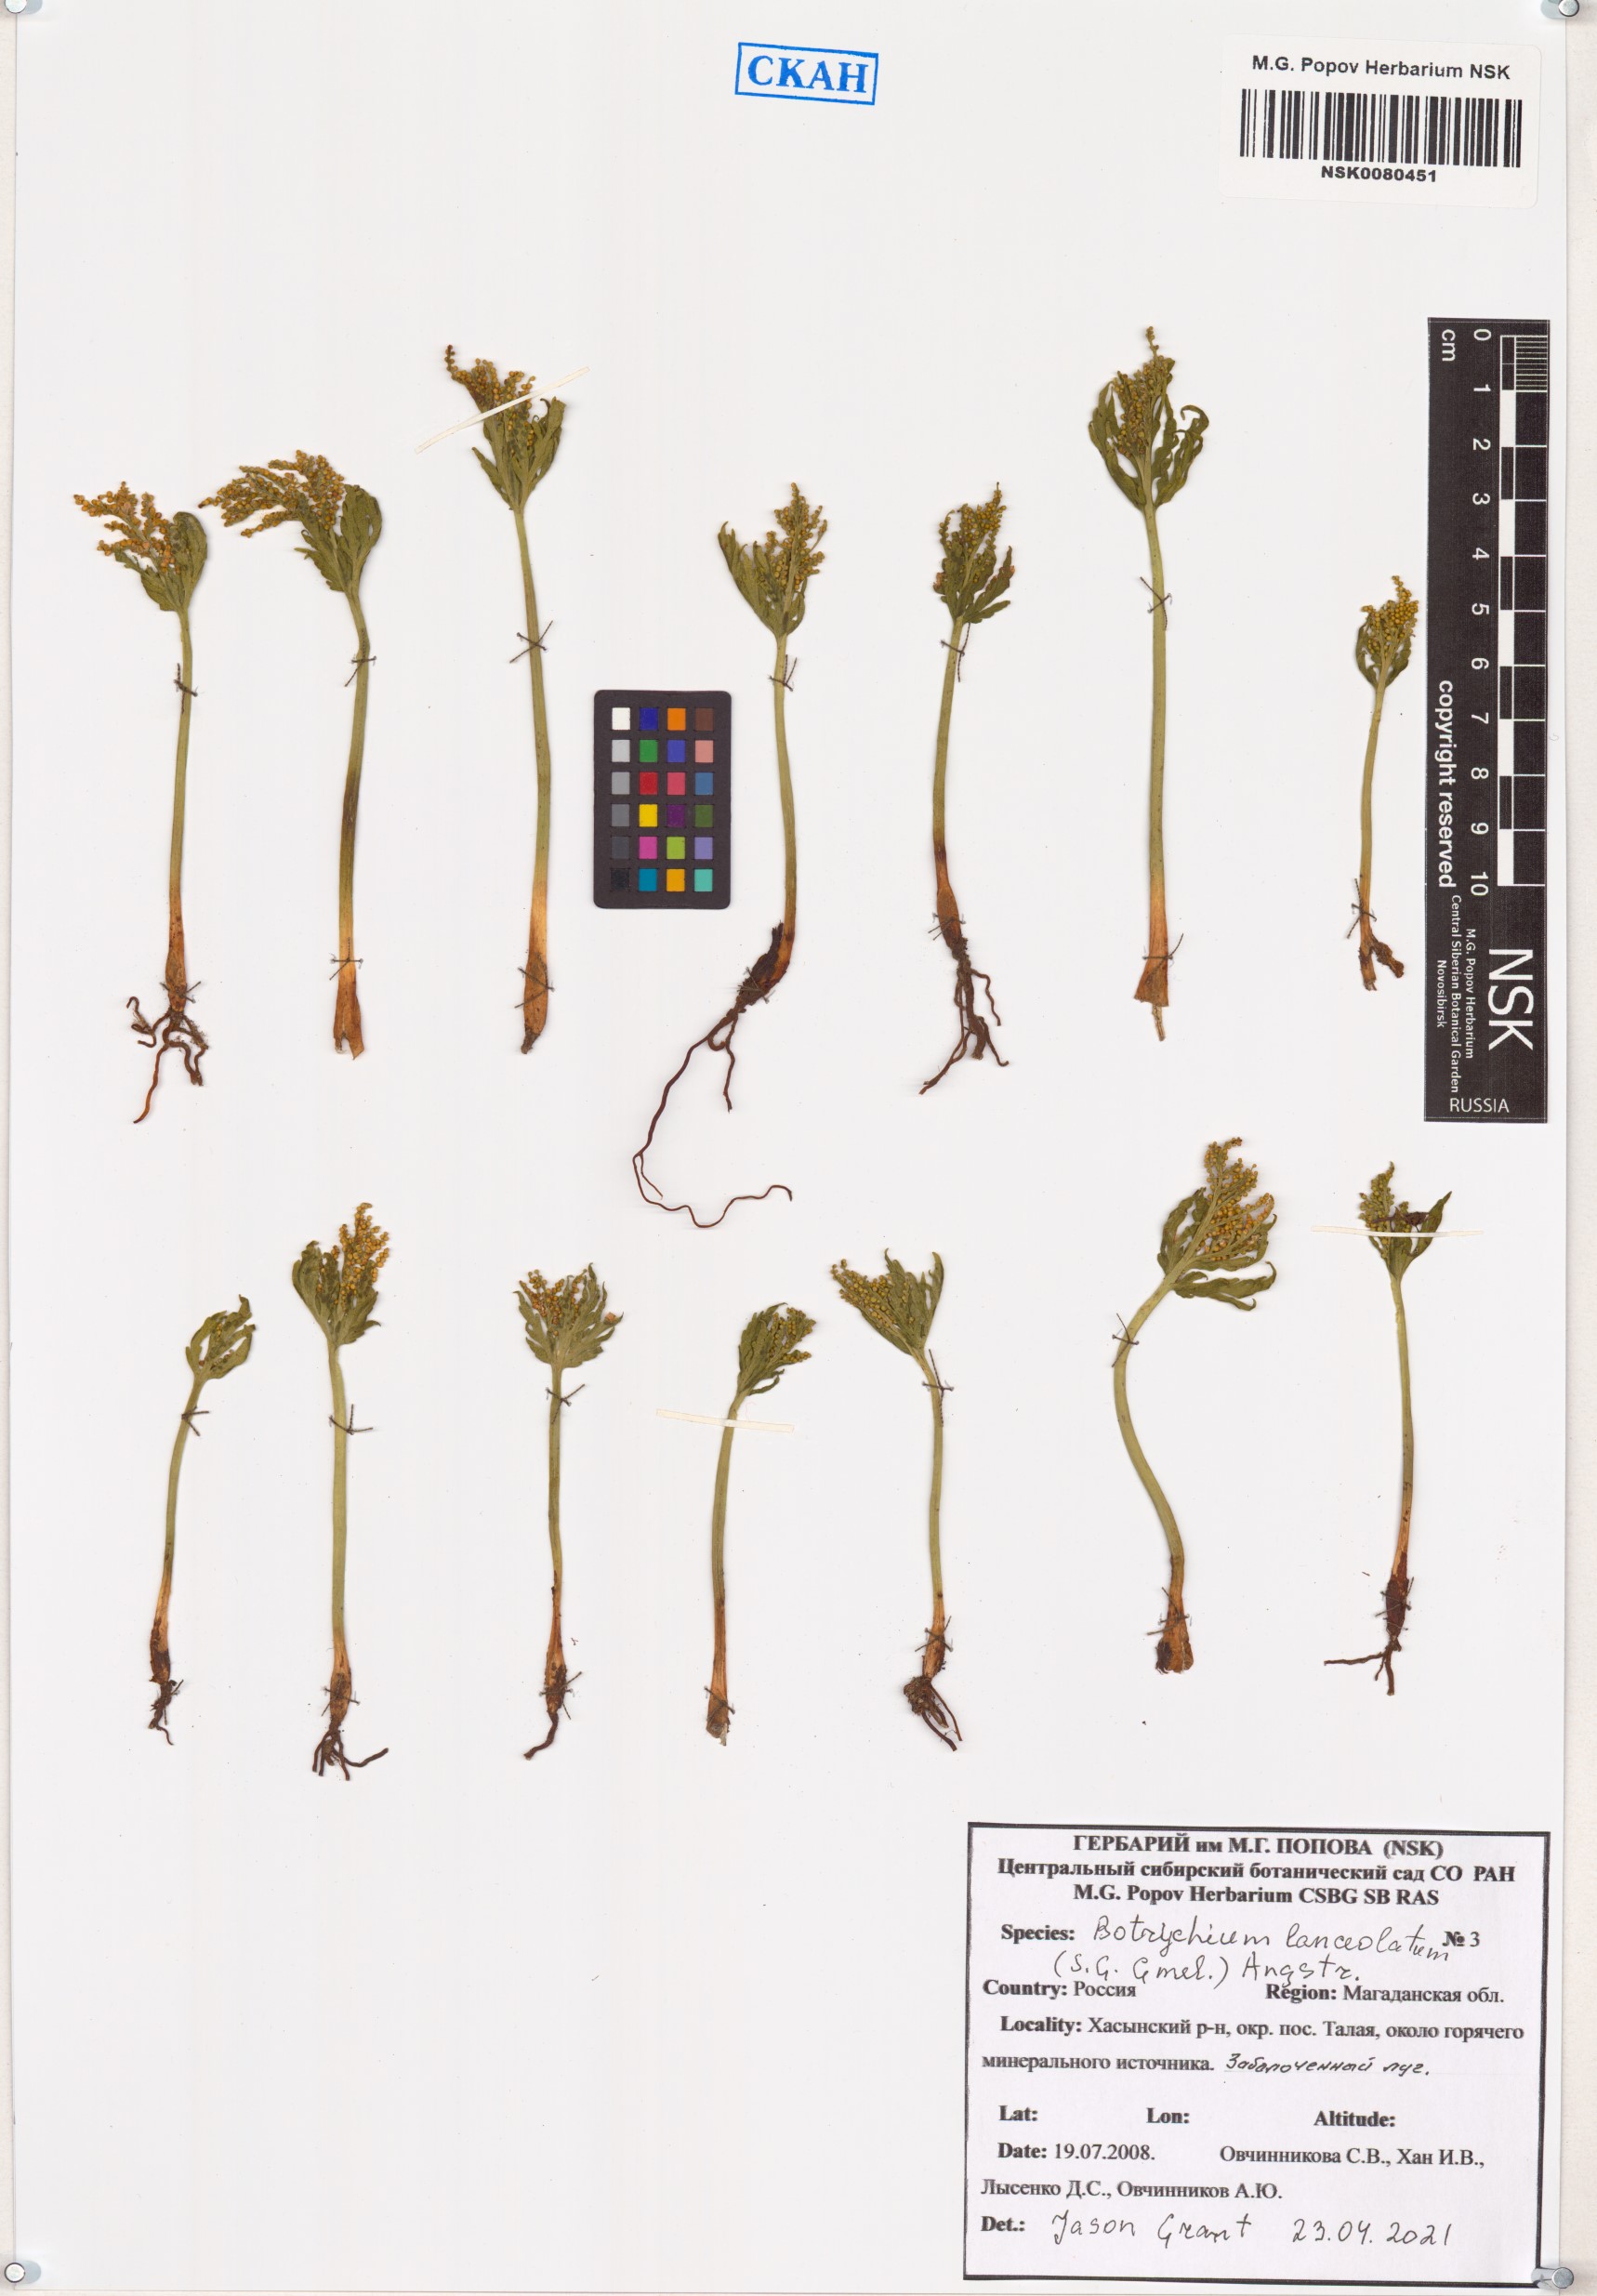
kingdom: Plantae
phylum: Tracheophyta
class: Polypodiopsida
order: Ophioglossales
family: Ophioglossaceae
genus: Botrychium
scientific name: Botrychium lanceolatum
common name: Lance-leaved moonwort
